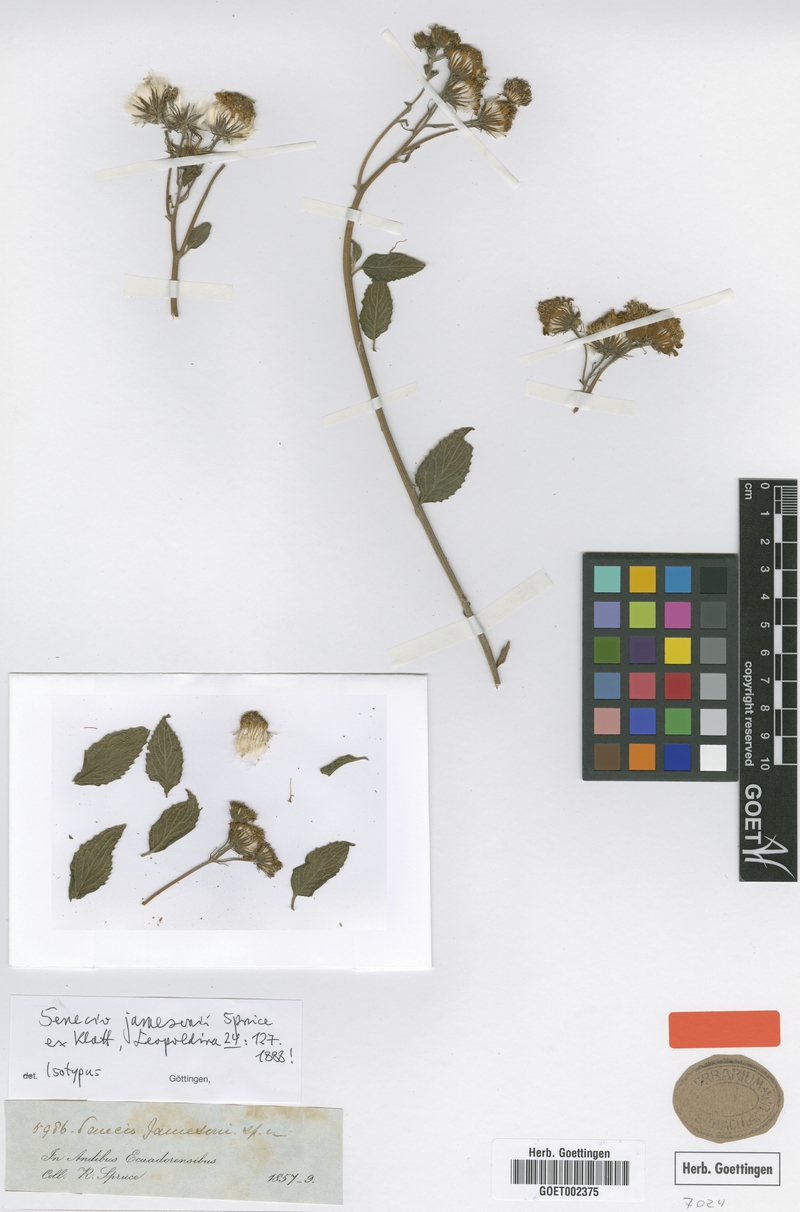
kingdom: Plantae
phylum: Tracheophyta
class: Magnoliopsida
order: Asterales
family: Asteraceae
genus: Pseudogynoxys
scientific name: Pseudogynoxys sonchoides
